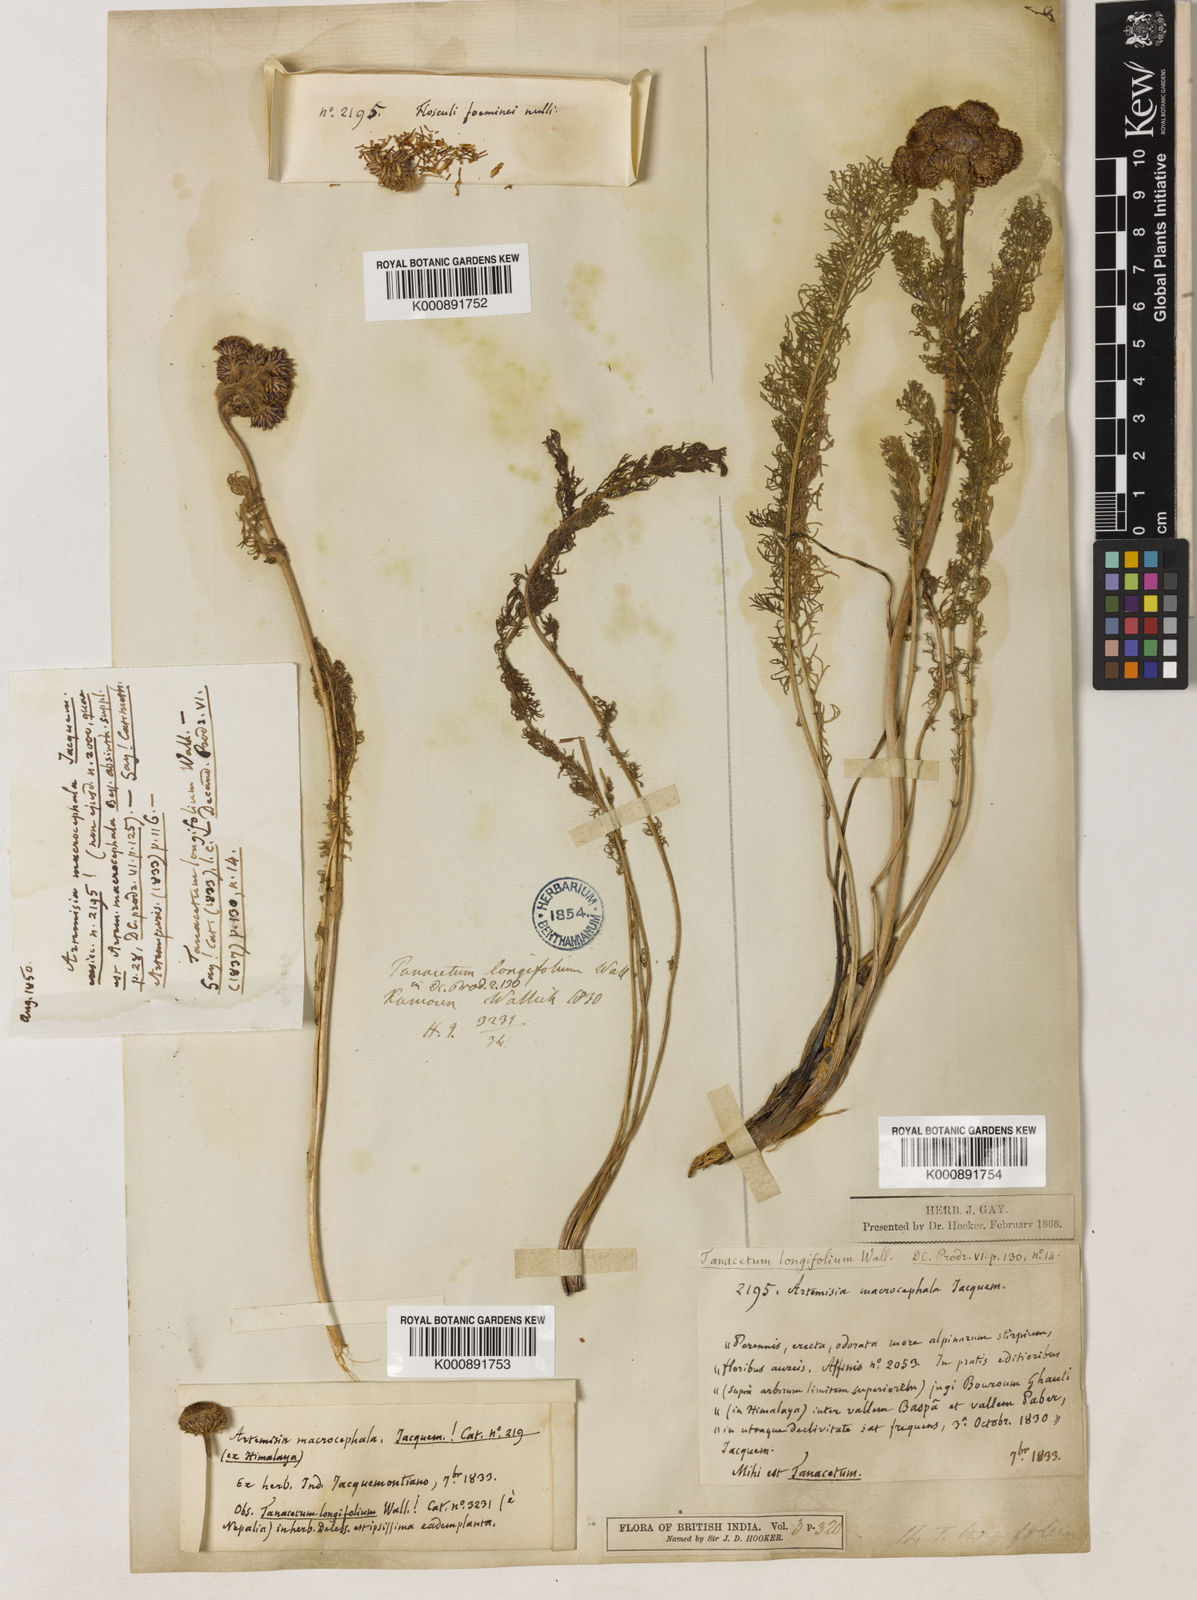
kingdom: Plantae
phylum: Tracheophyta
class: Magnoliopsida
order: Asterales
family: Asteraceae
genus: Hippolytia
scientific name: Hippolytia longifolia
